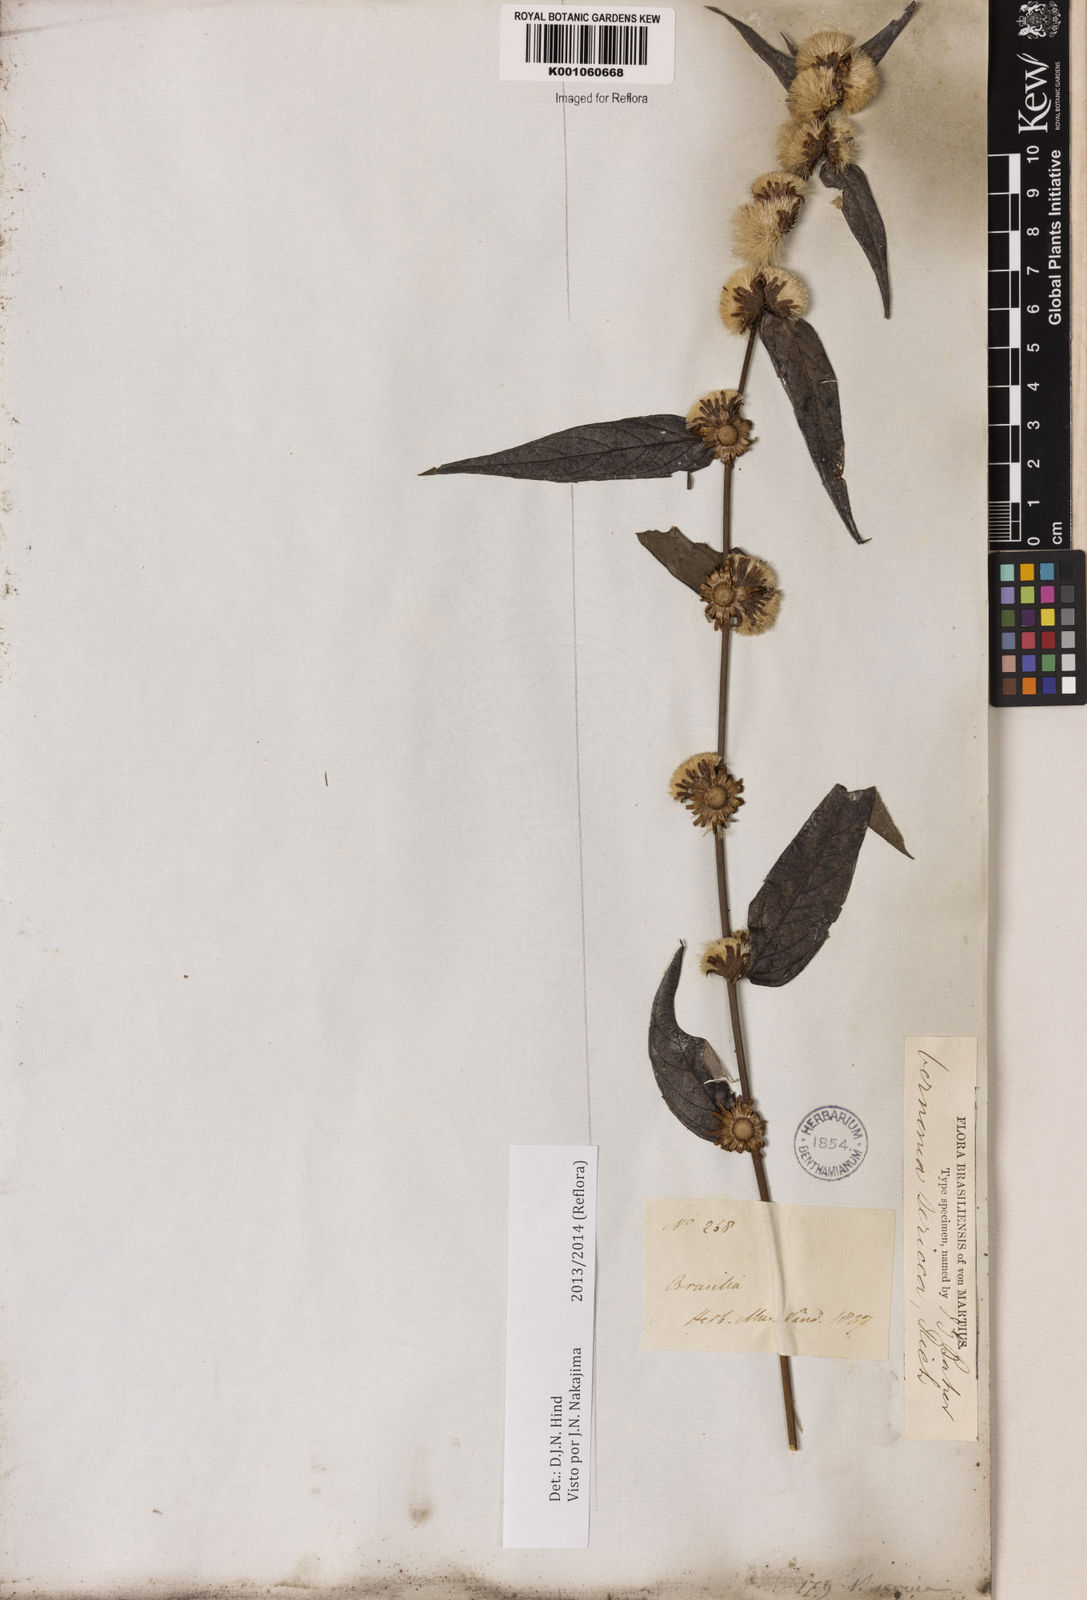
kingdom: Plantae
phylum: Tracheophyta
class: Magnoliopsida
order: Asterales
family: Asteraceae
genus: Lepidaploa
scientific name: Lepidaploa sericea
